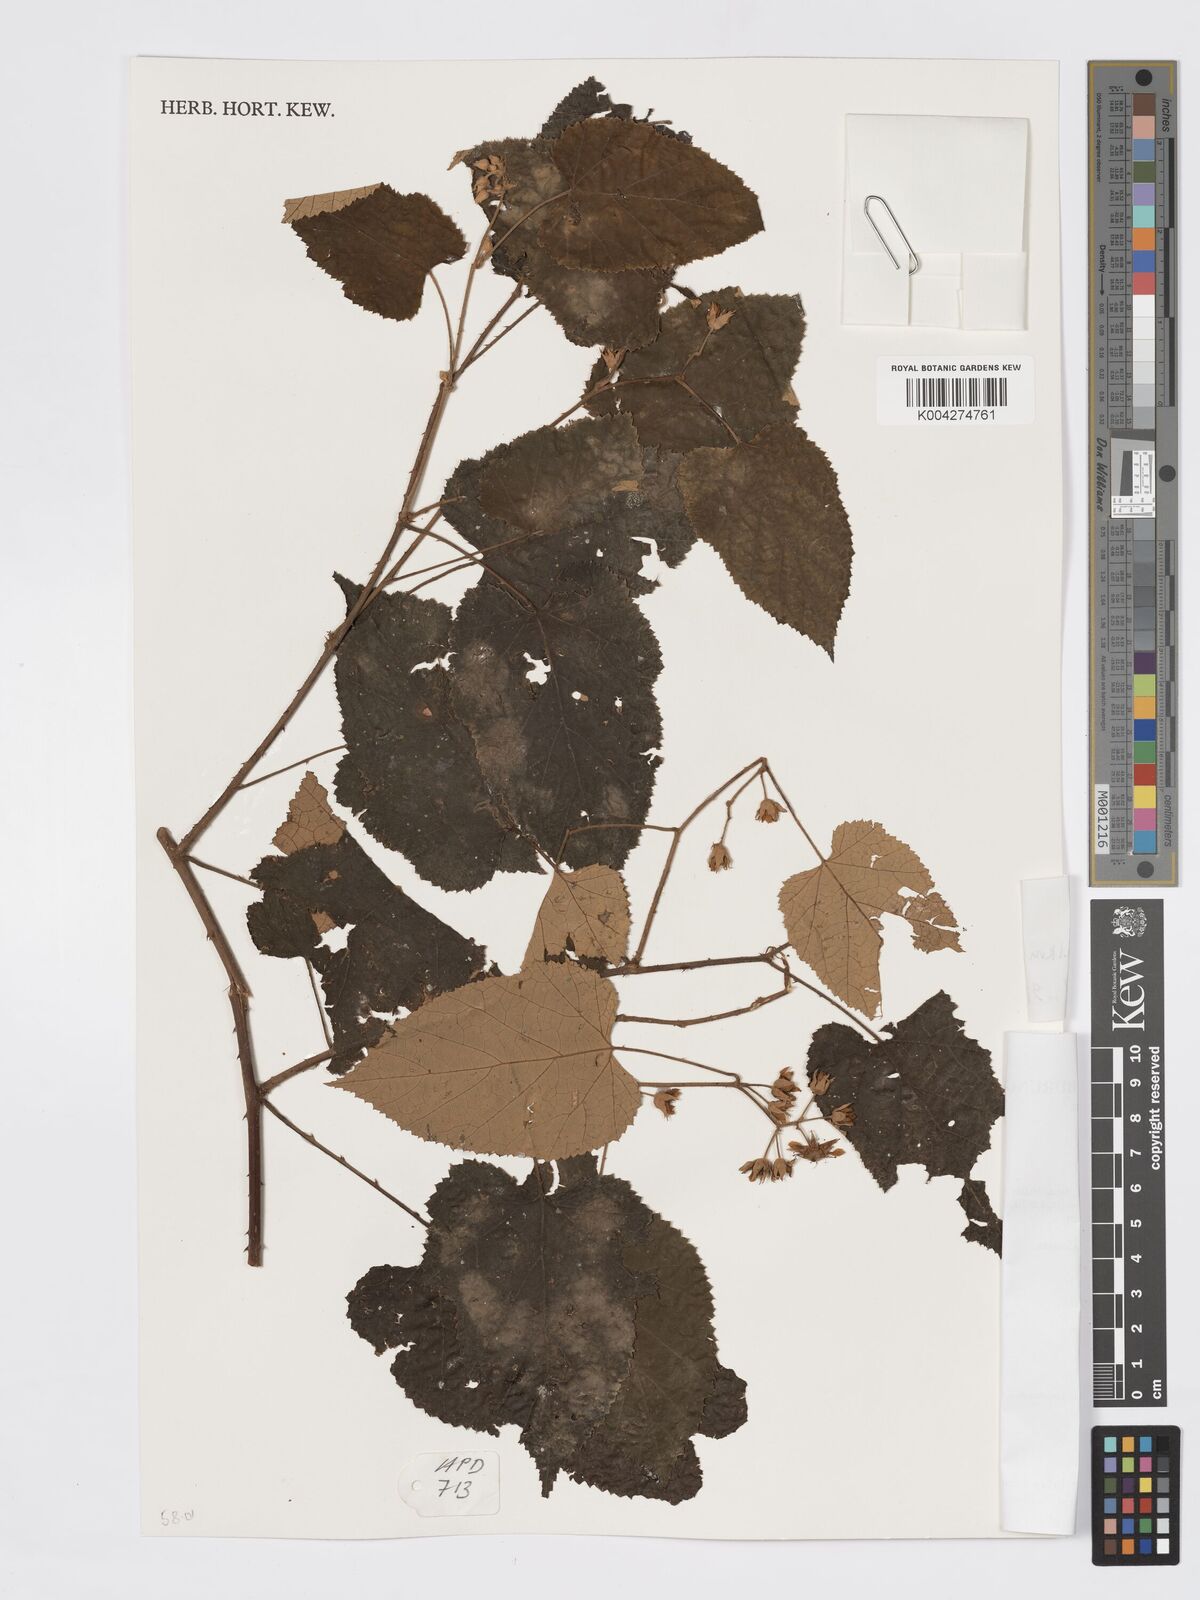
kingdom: Plantae
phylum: Tracheophyta
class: Magnoliopsida
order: Rosales
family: Rosaceae
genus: Rubus
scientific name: Rubus moluccanus
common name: Wild raspberry
